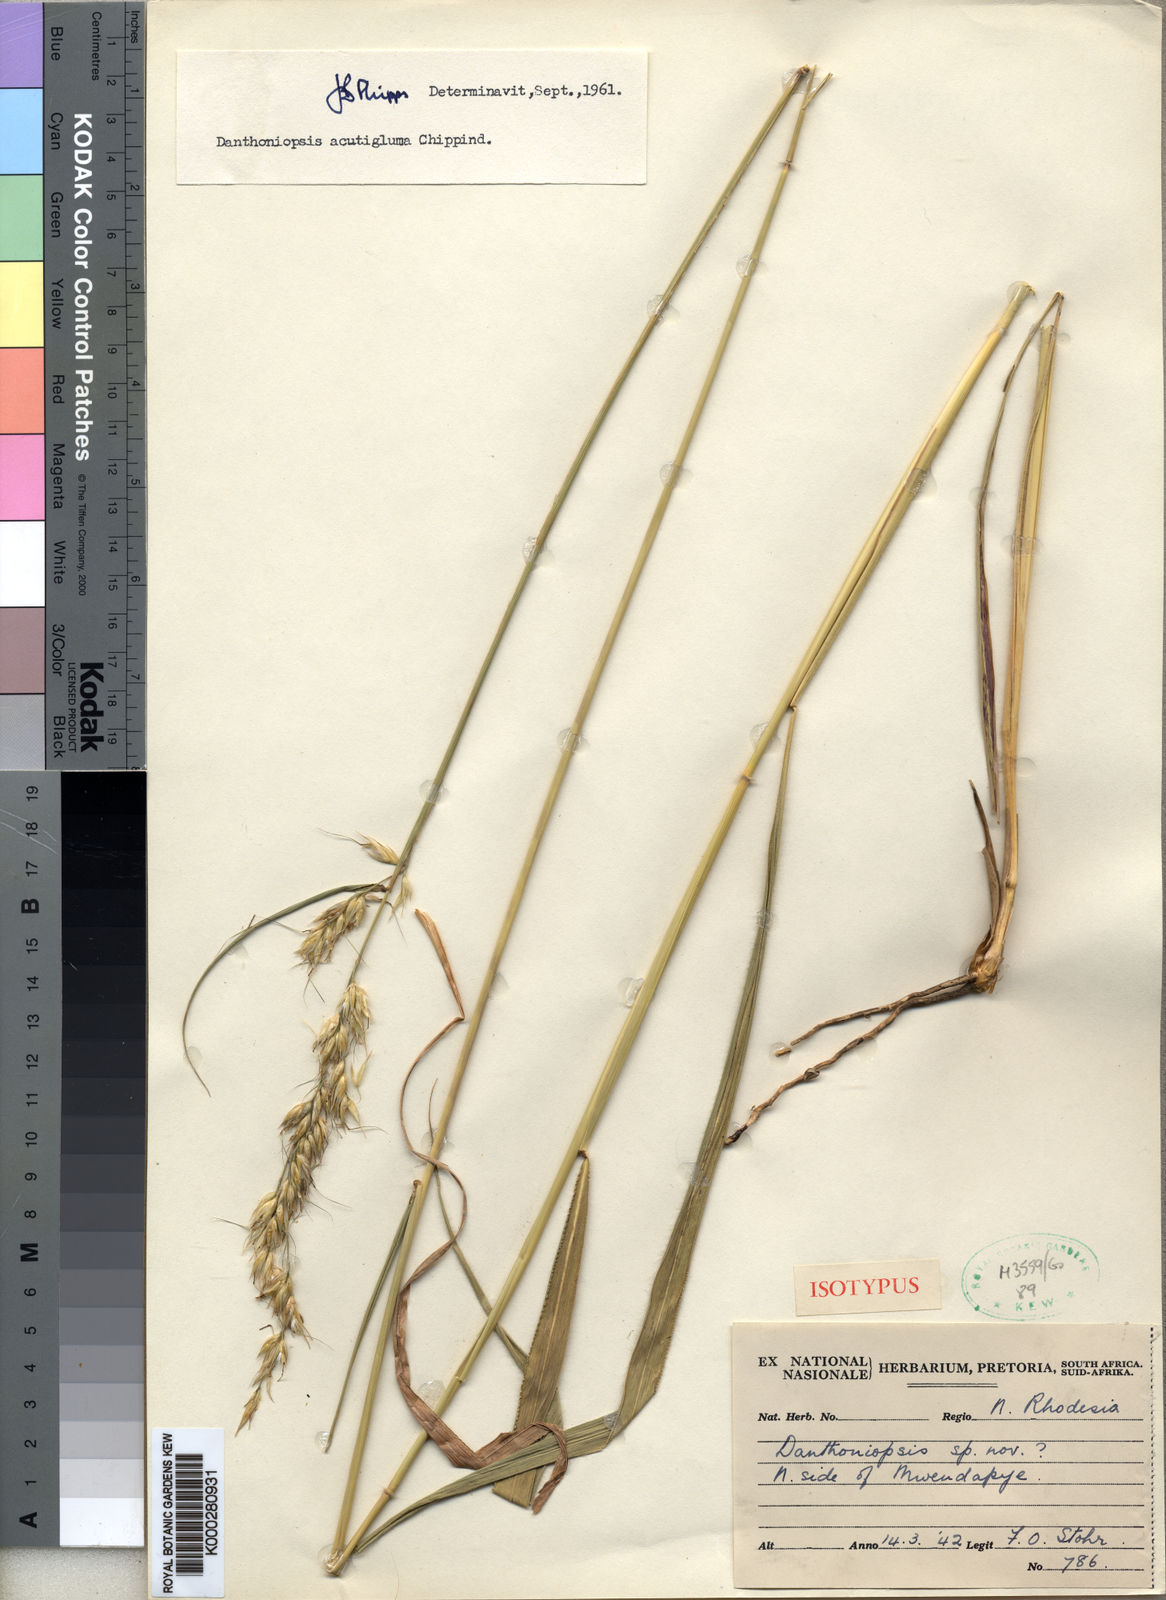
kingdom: Plantae
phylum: Tracheophyta
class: Liliopsida
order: Poales
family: Poaceae
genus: Danthoniopsis
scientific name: Danthoniopsis acutigluma
